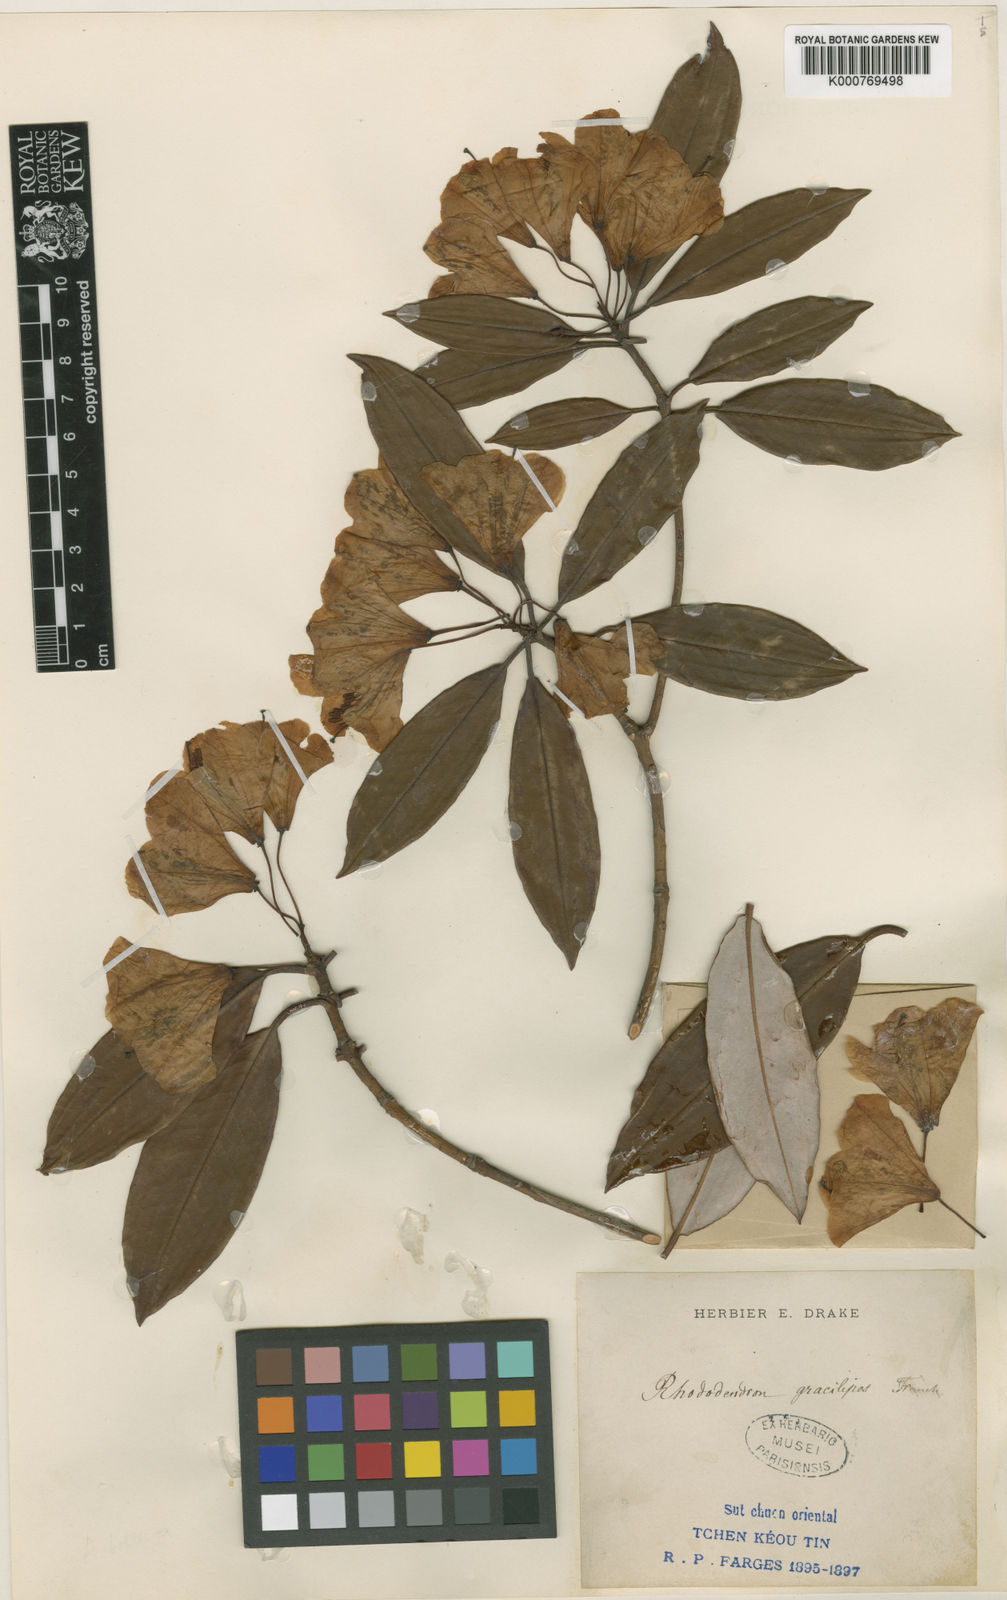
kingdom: Plantae
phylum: Tracheophyta
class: Magnoliopsida
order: Ericales
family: Ericaceae
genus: Rhododendron
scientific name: Rhododendron hypoglaucum
